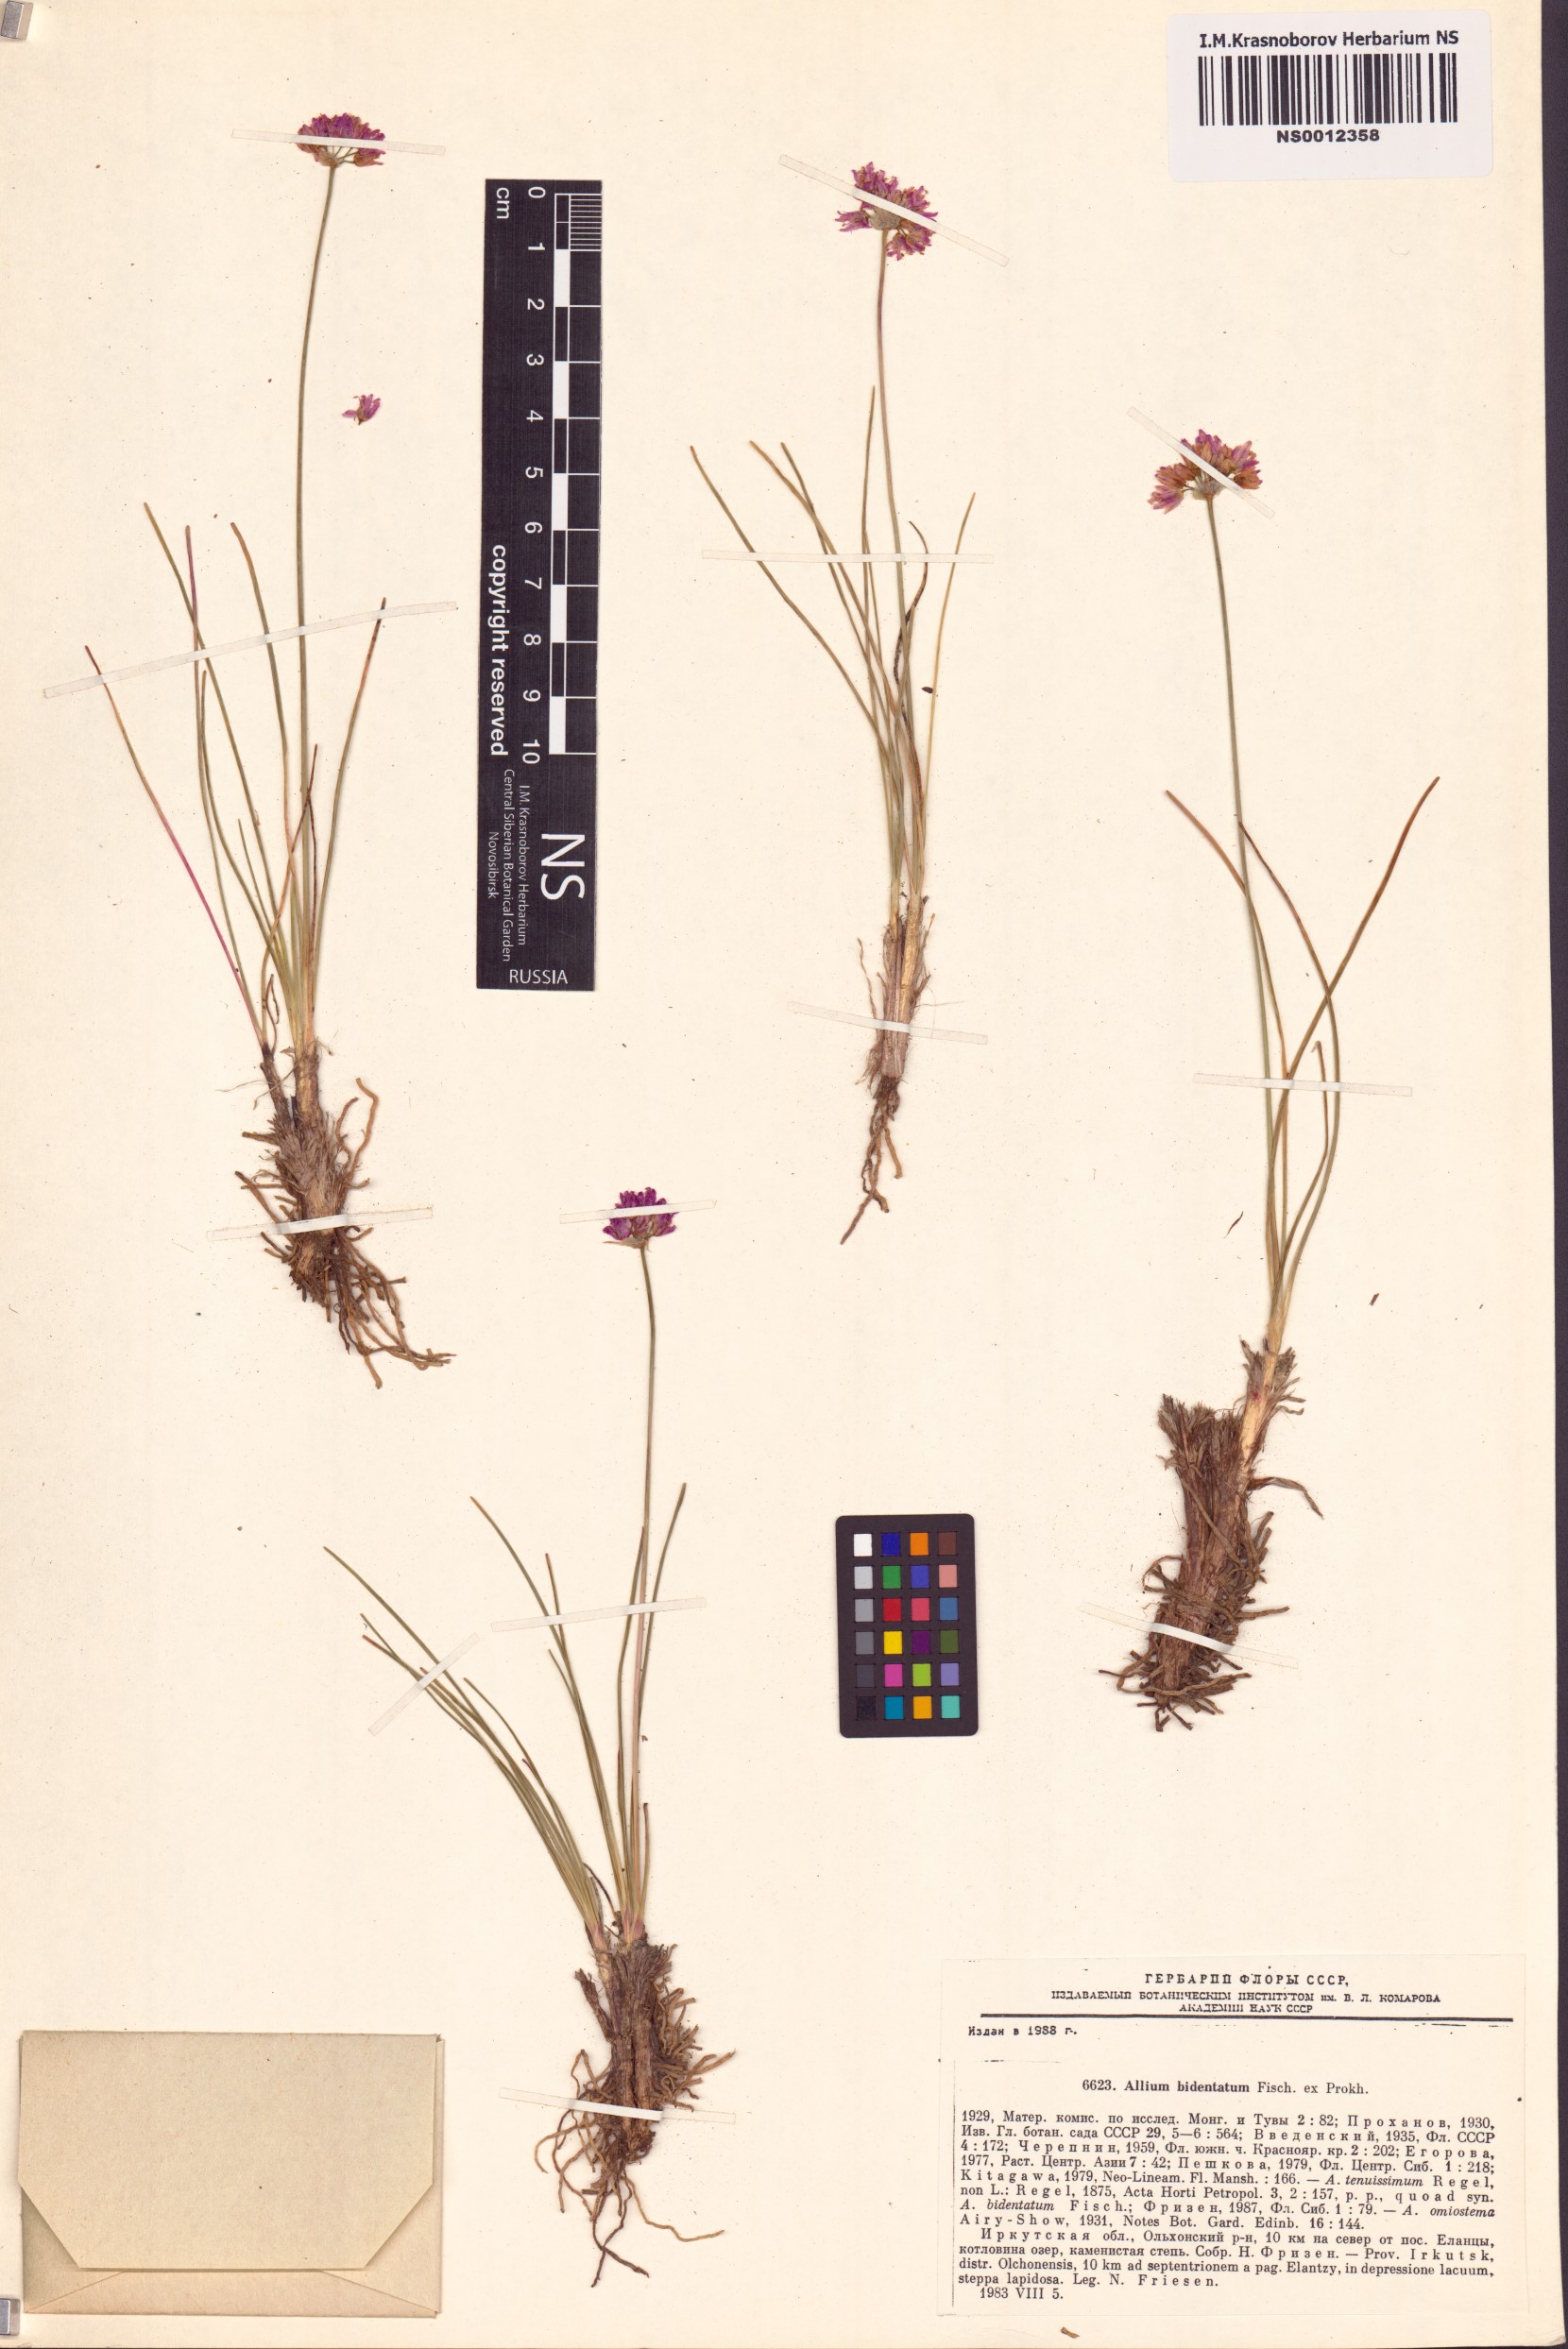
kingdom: Plantae
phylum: Tracheophyta
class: Liliopsida
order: Asparagales
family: Amaryllidaceae
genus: Allium
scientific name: Allium bidentatum
